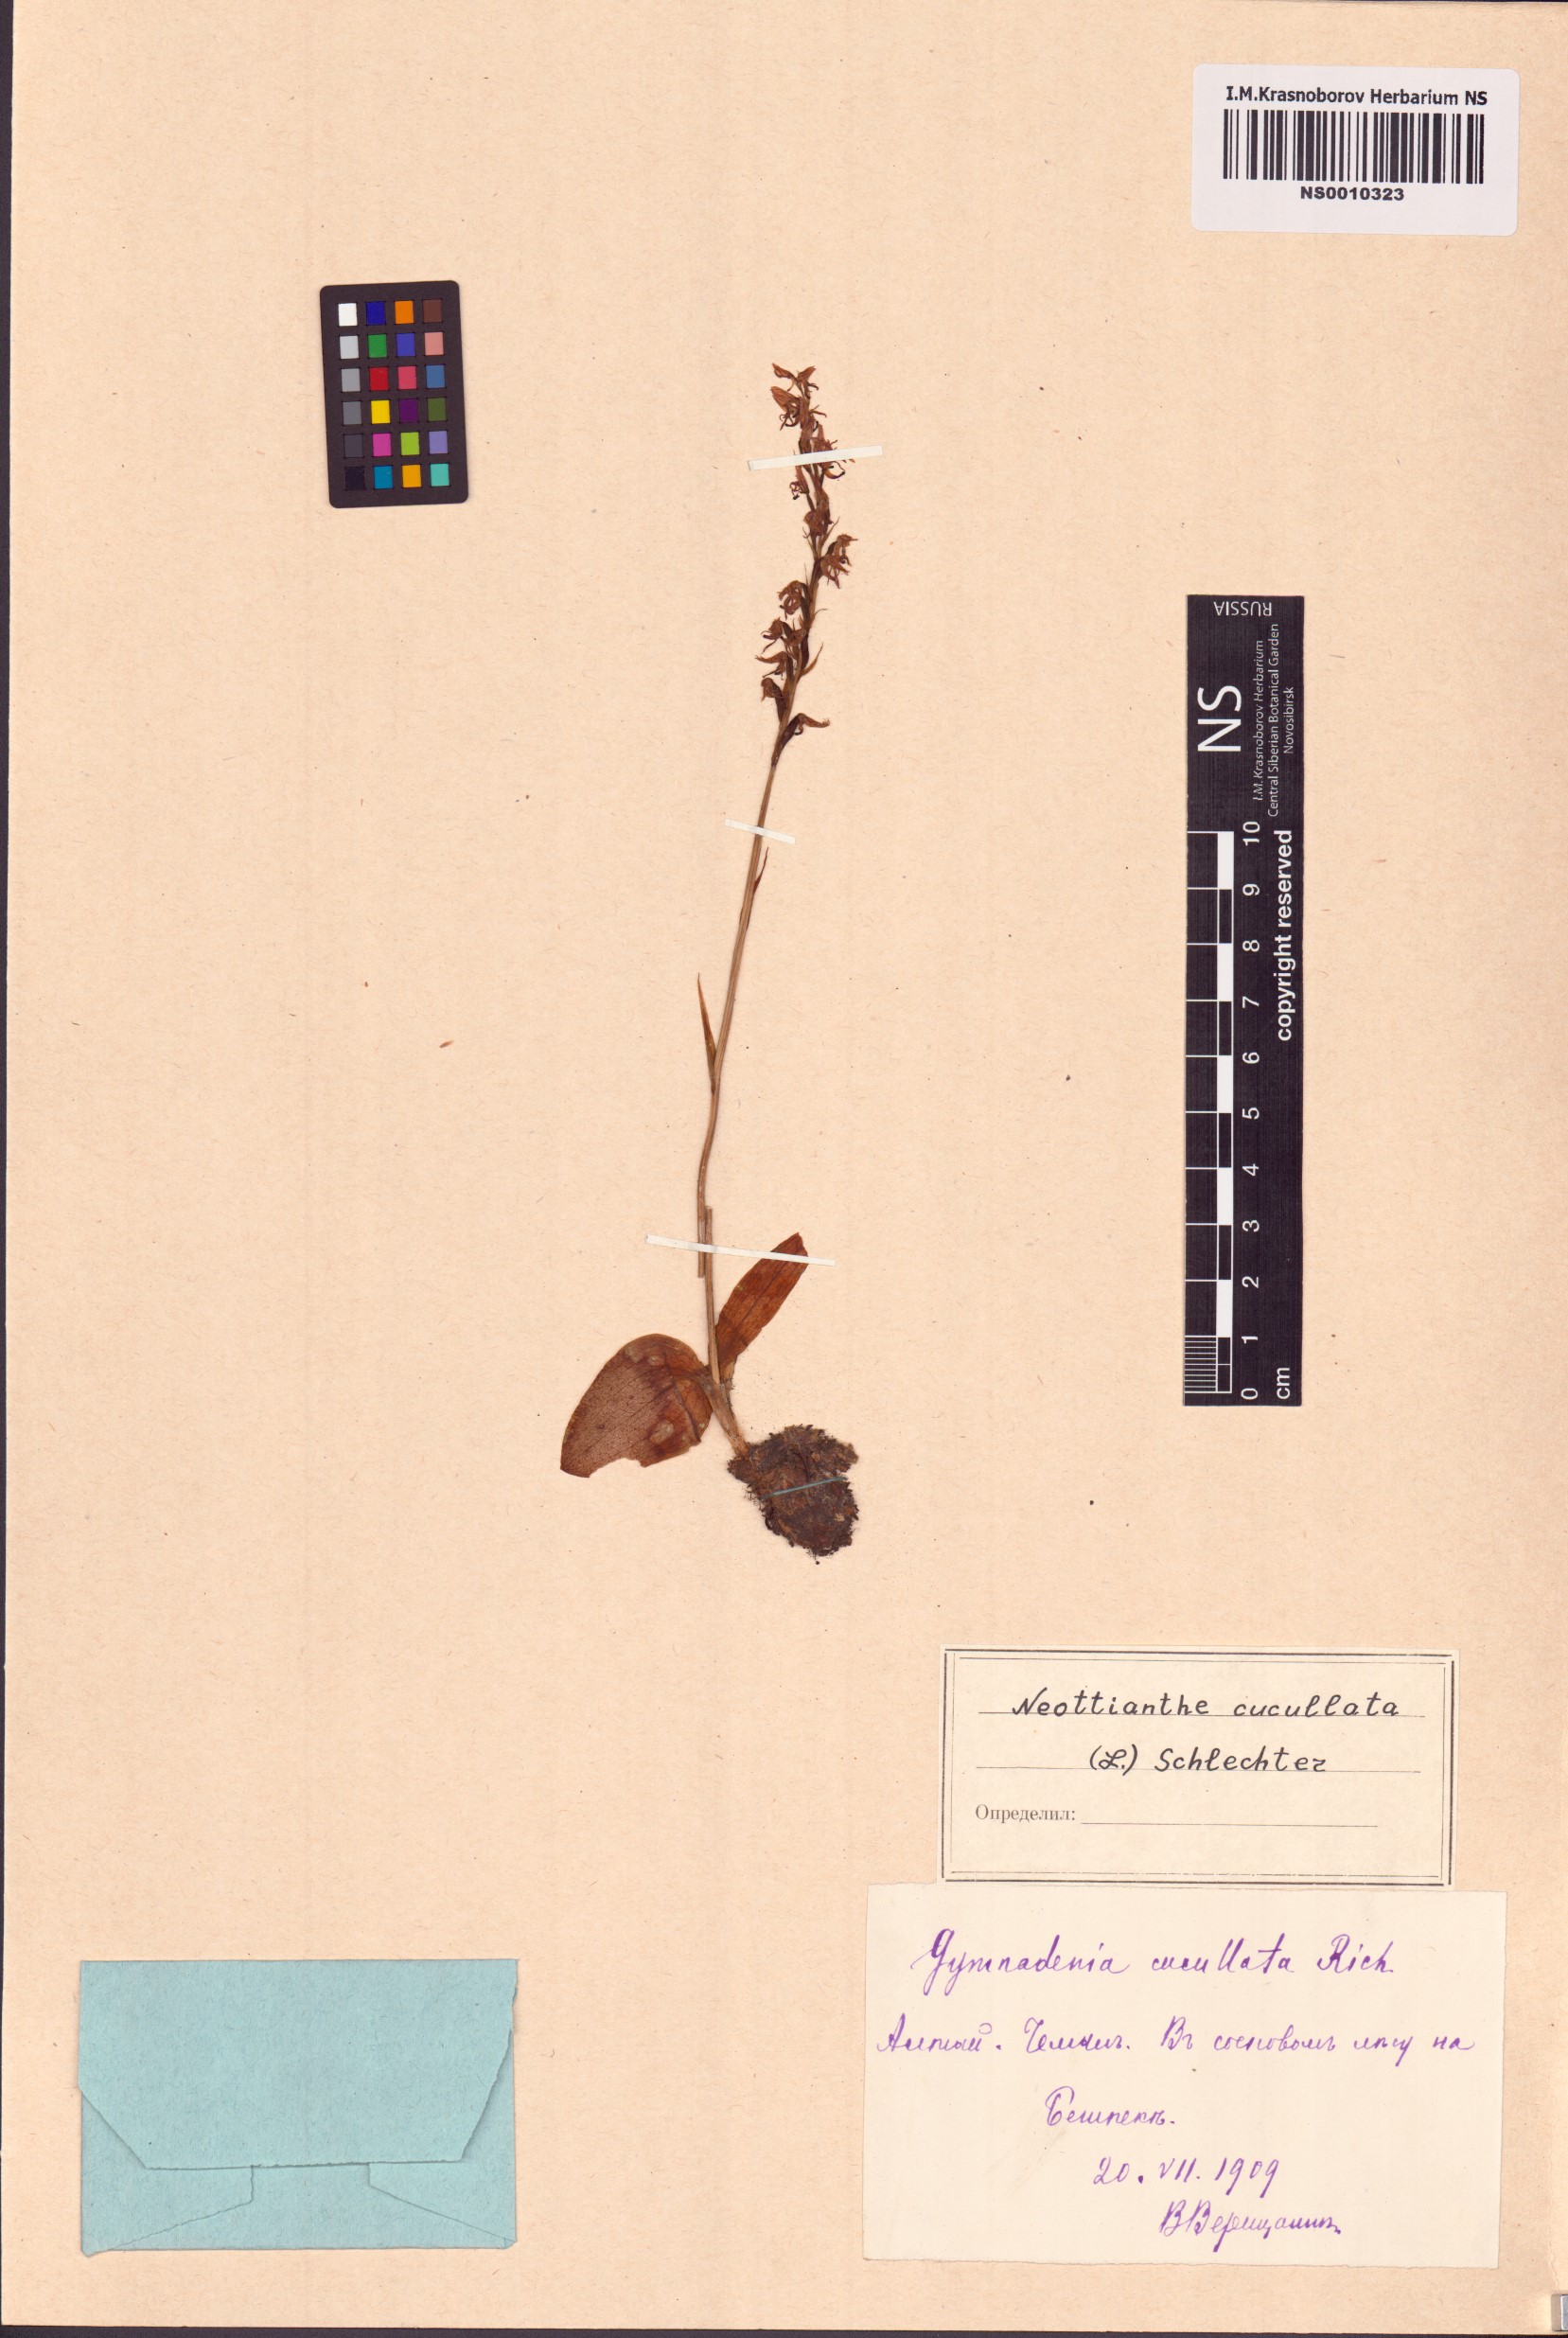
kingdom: Plantae
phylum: Tracheophyta
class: Liliopsida
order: Asparagales
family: Orchidaceae
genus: Hemipilia
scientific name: Hemipilia cucullata
